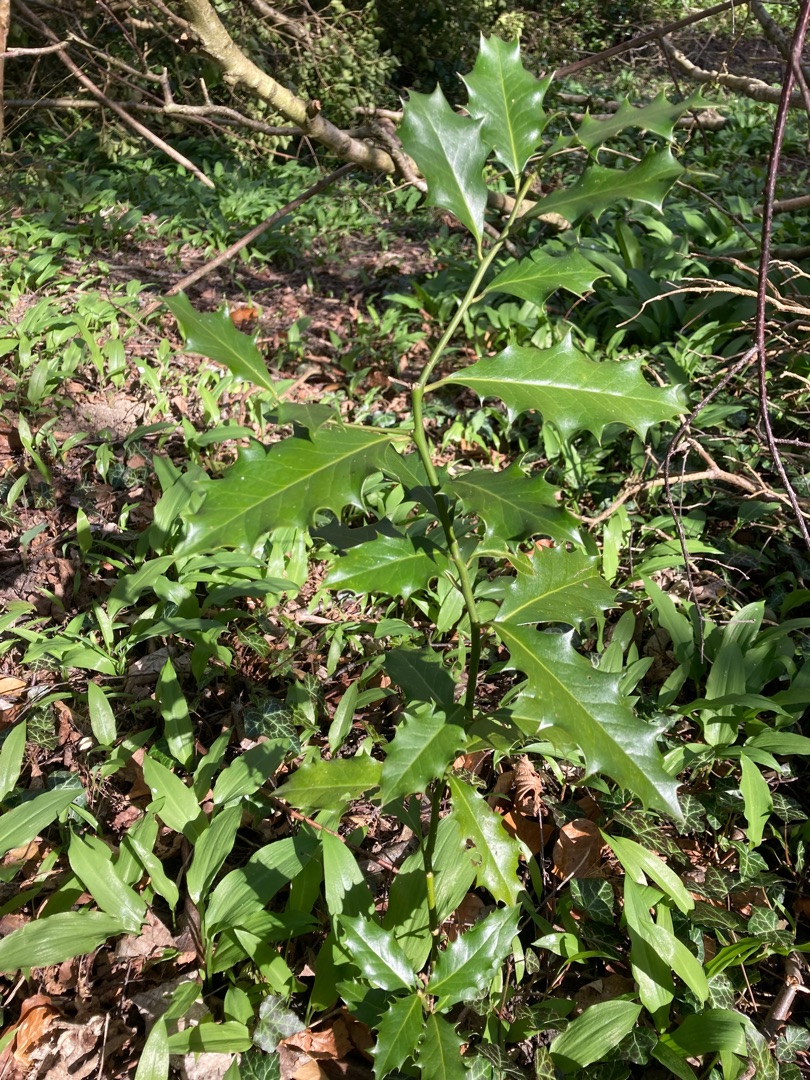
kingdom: Plantae
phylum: Tracheophyta
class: Magnoliopsida
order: Aquifoliales
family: Aquifoliaceae
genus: Ilex
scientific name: Ilex aquifolium
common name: Kristtorn
